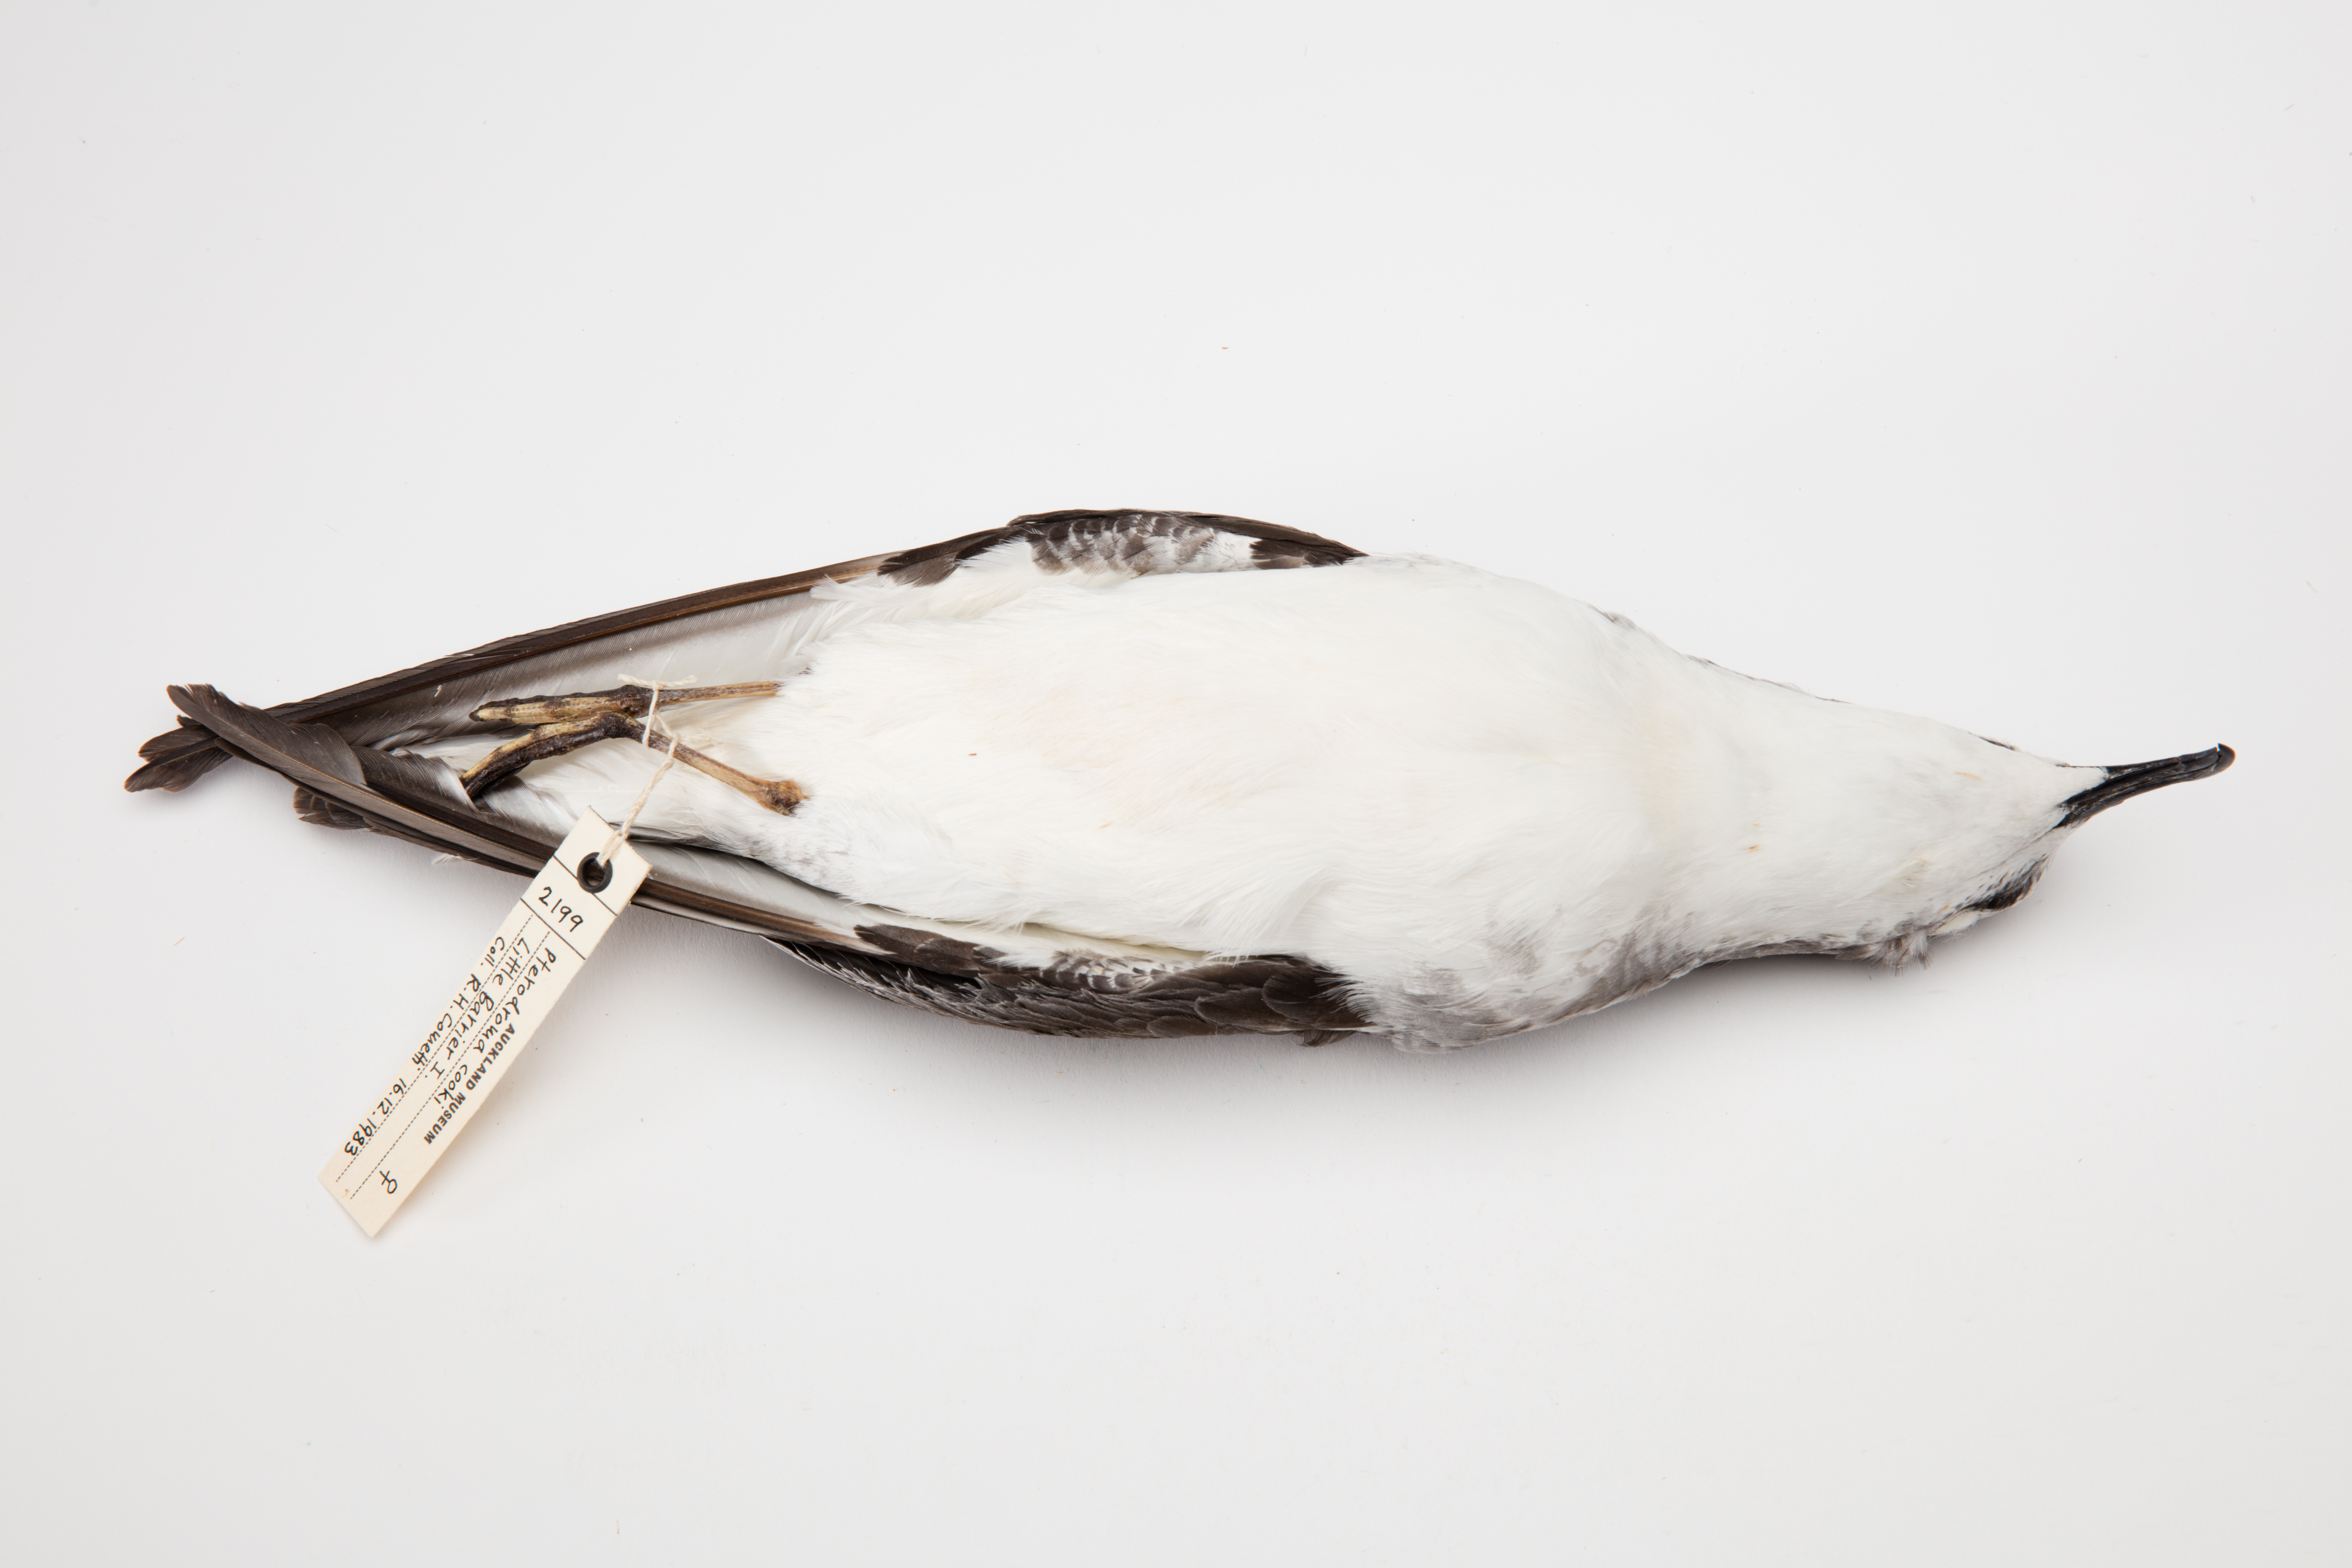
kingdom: Animalia
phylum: Chordata
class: Aves
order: Procellariiformes
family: Procellariidae
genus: Pterodroma
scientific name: Pterodroma cookii
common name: Cook's petrel
